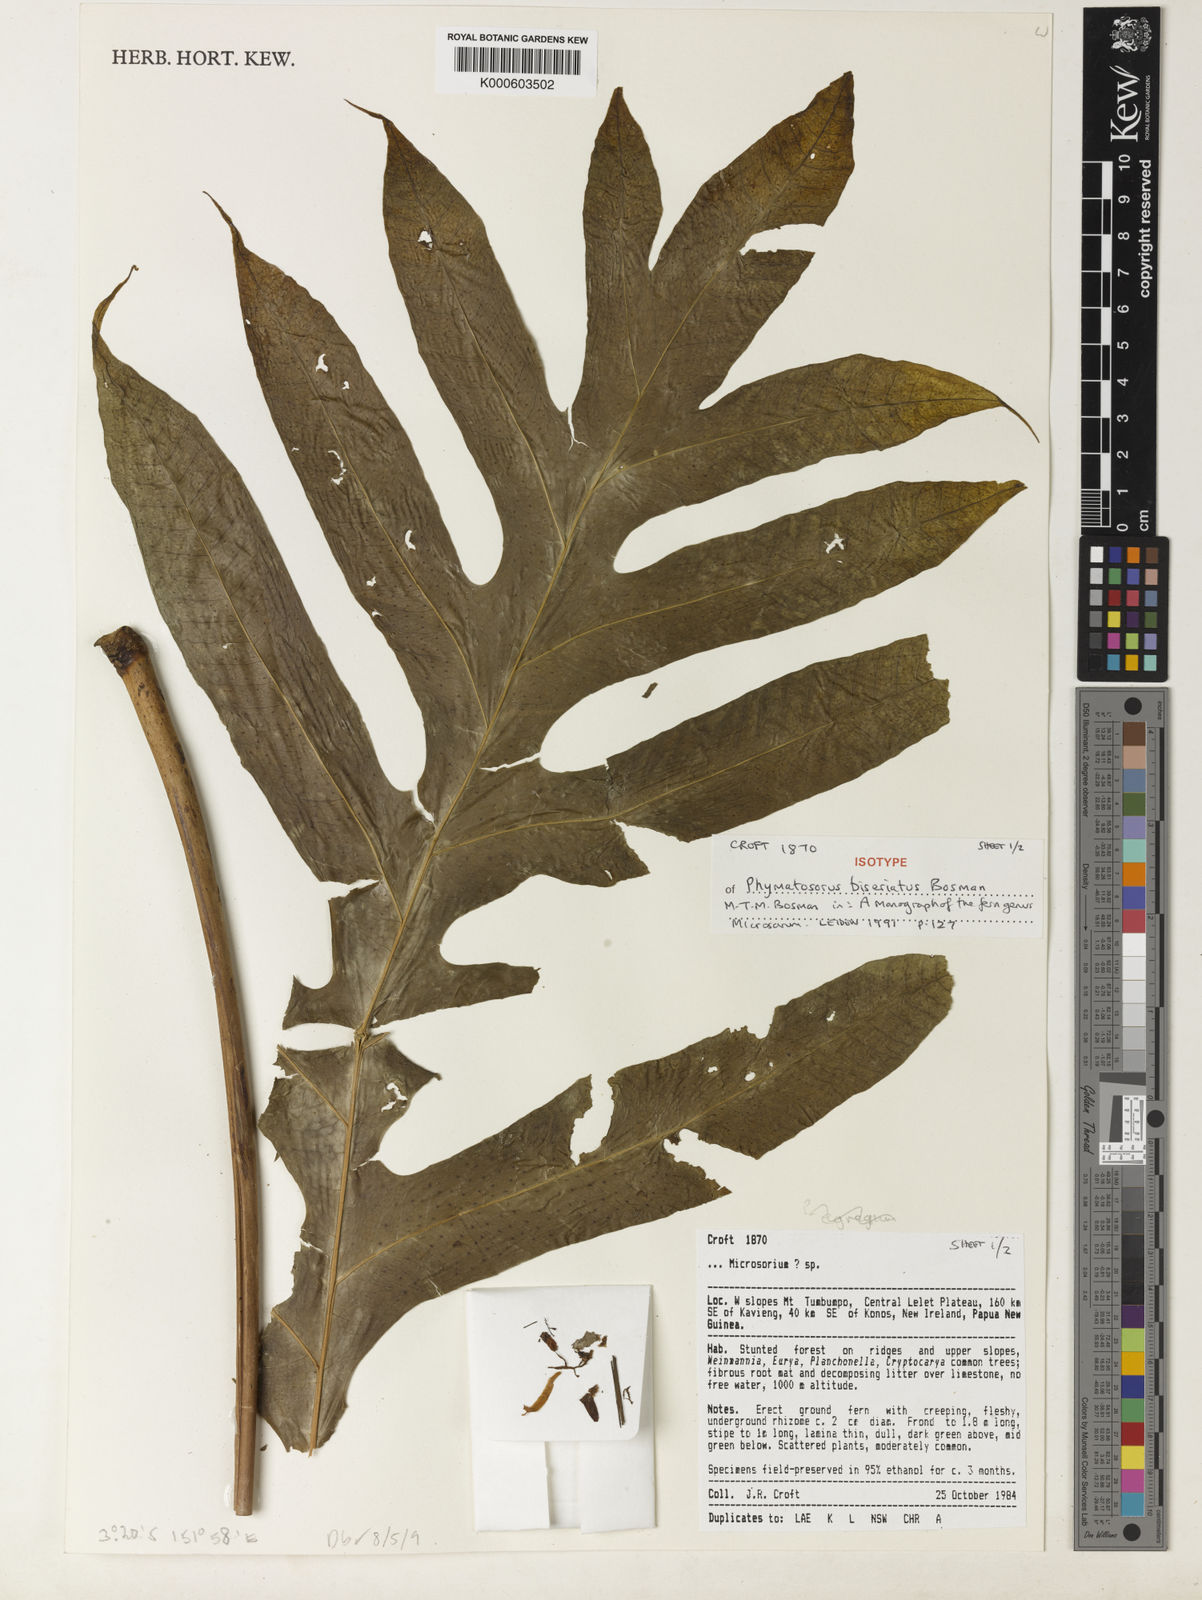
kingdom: Plantae
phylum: Tracheophyta
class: Polypodiopsida
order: Polypodiales
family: Polypodiaceae
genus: Microsorum
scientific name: Microsorum biseriatum
